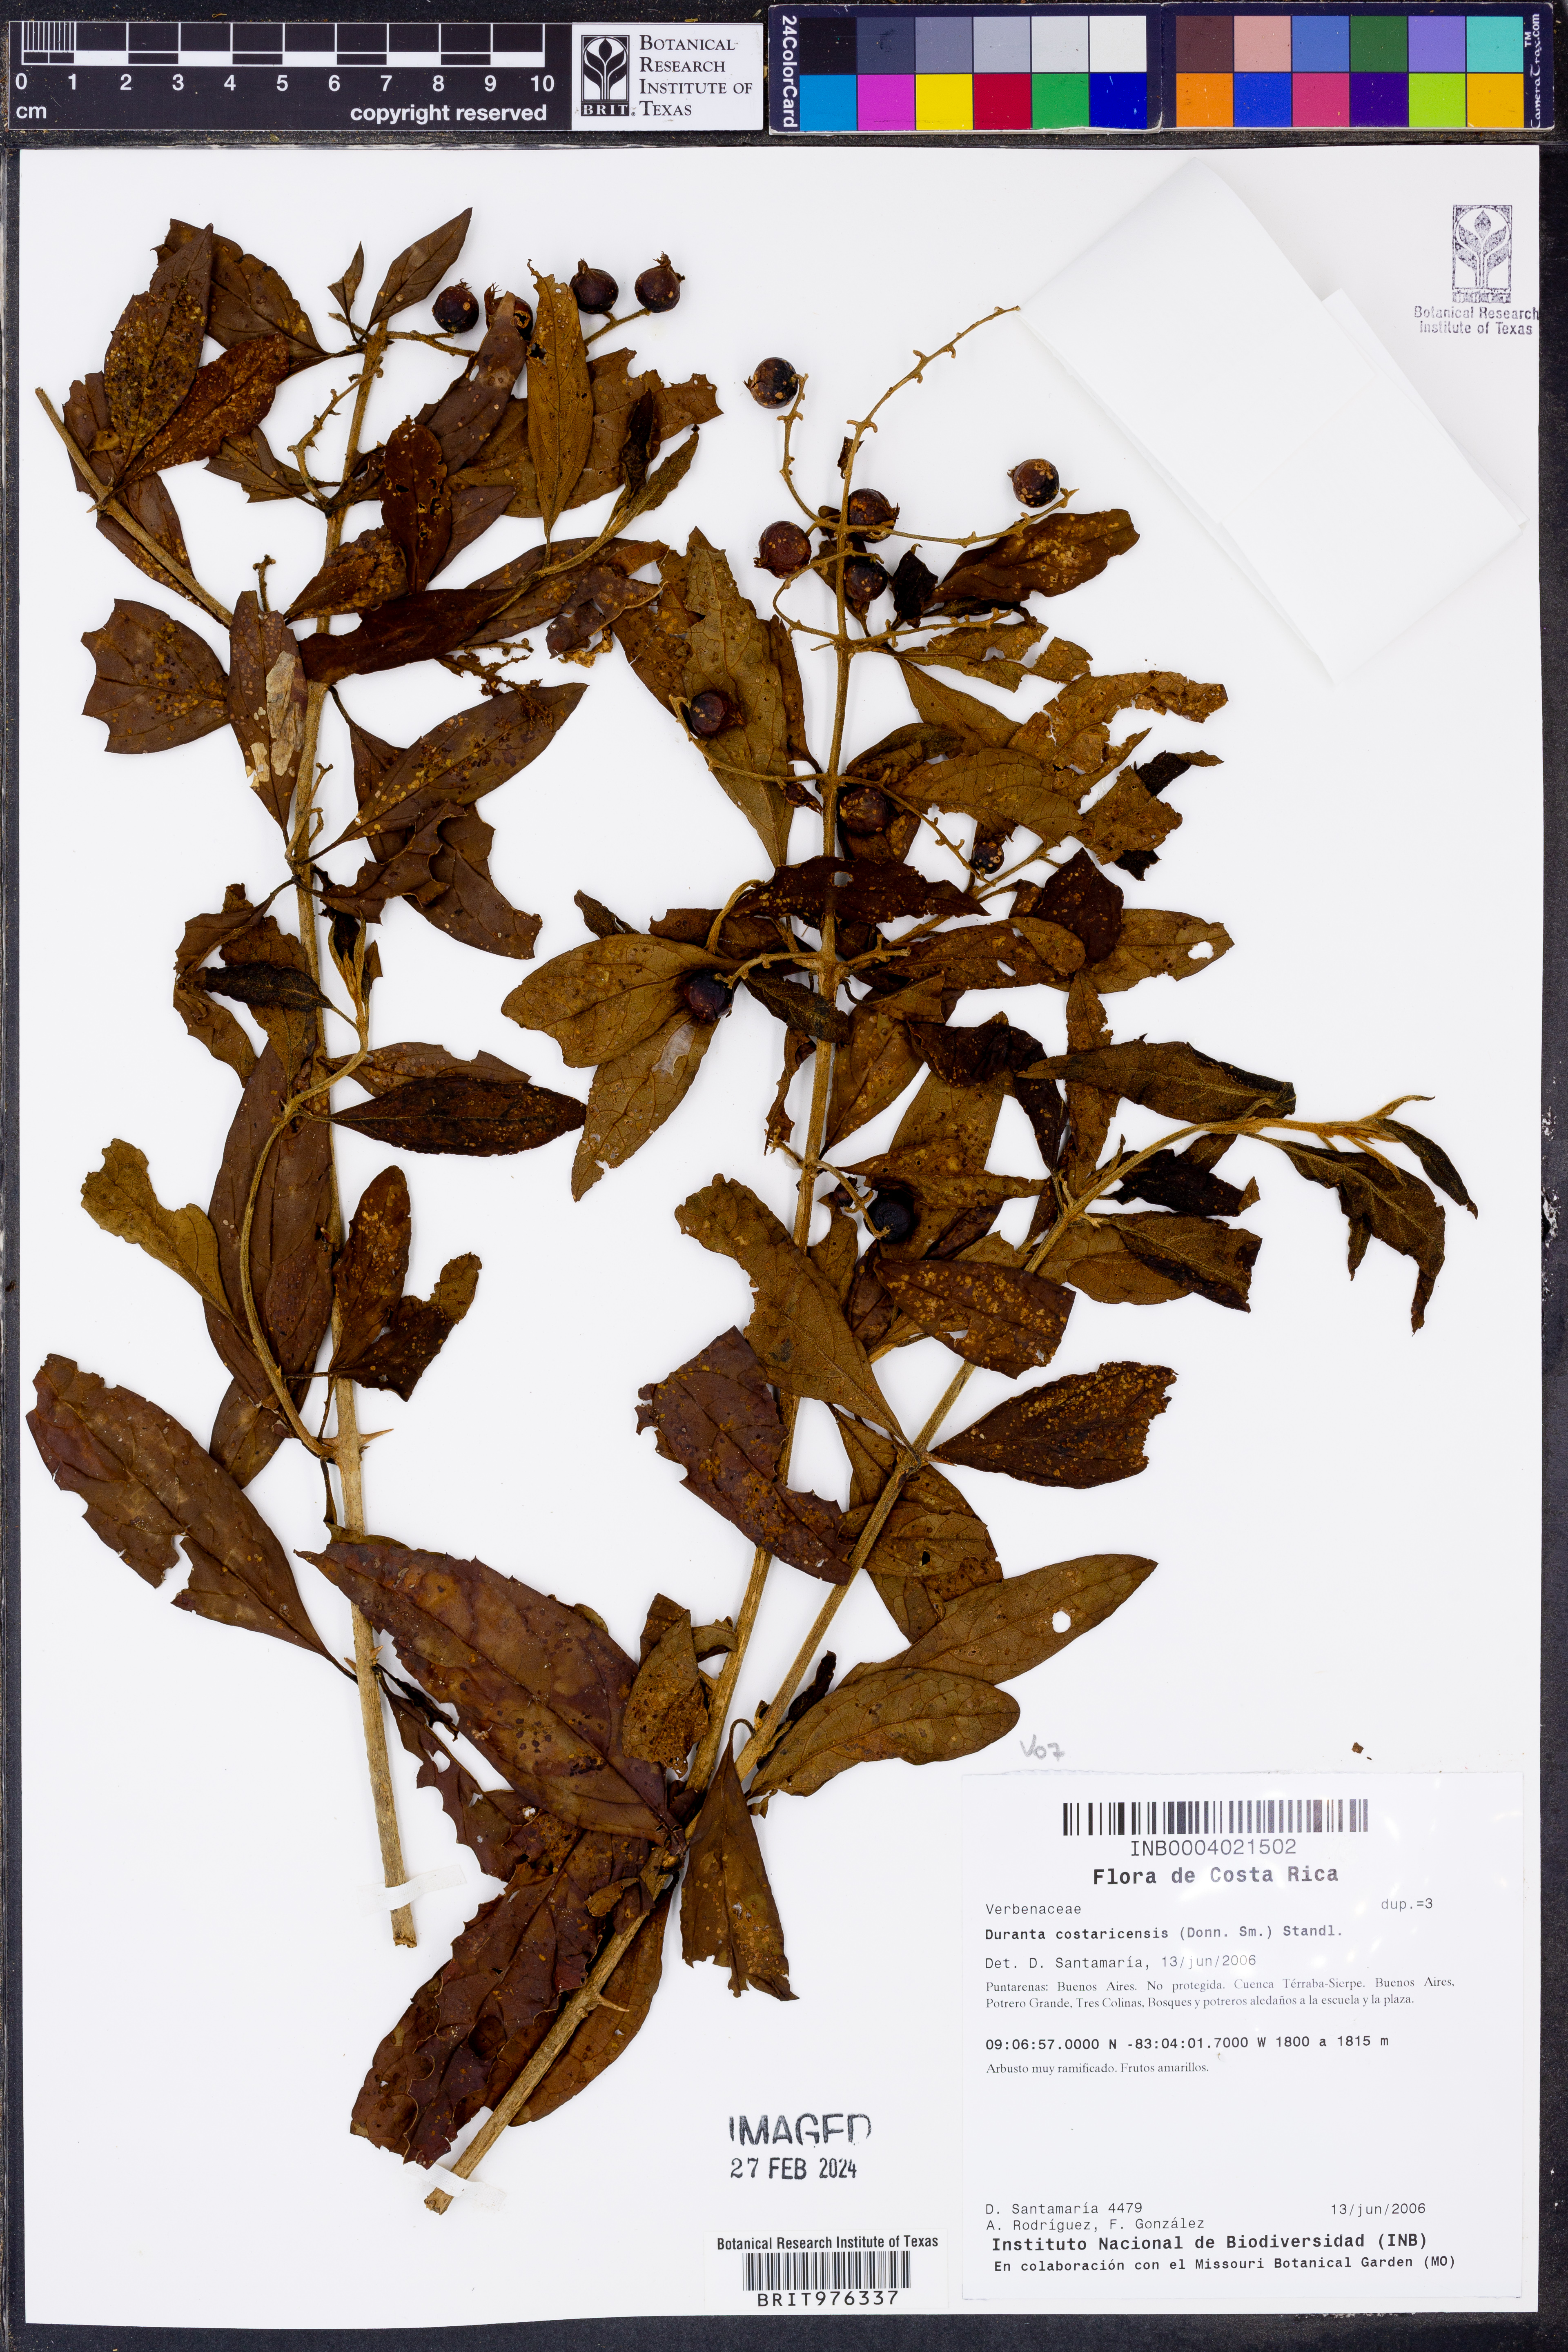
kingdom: Plantae
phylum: Tracheophyta
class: Magnoliopsida
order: Lamiales
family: Verbenaceae
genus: Duranta
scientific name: Duranta
